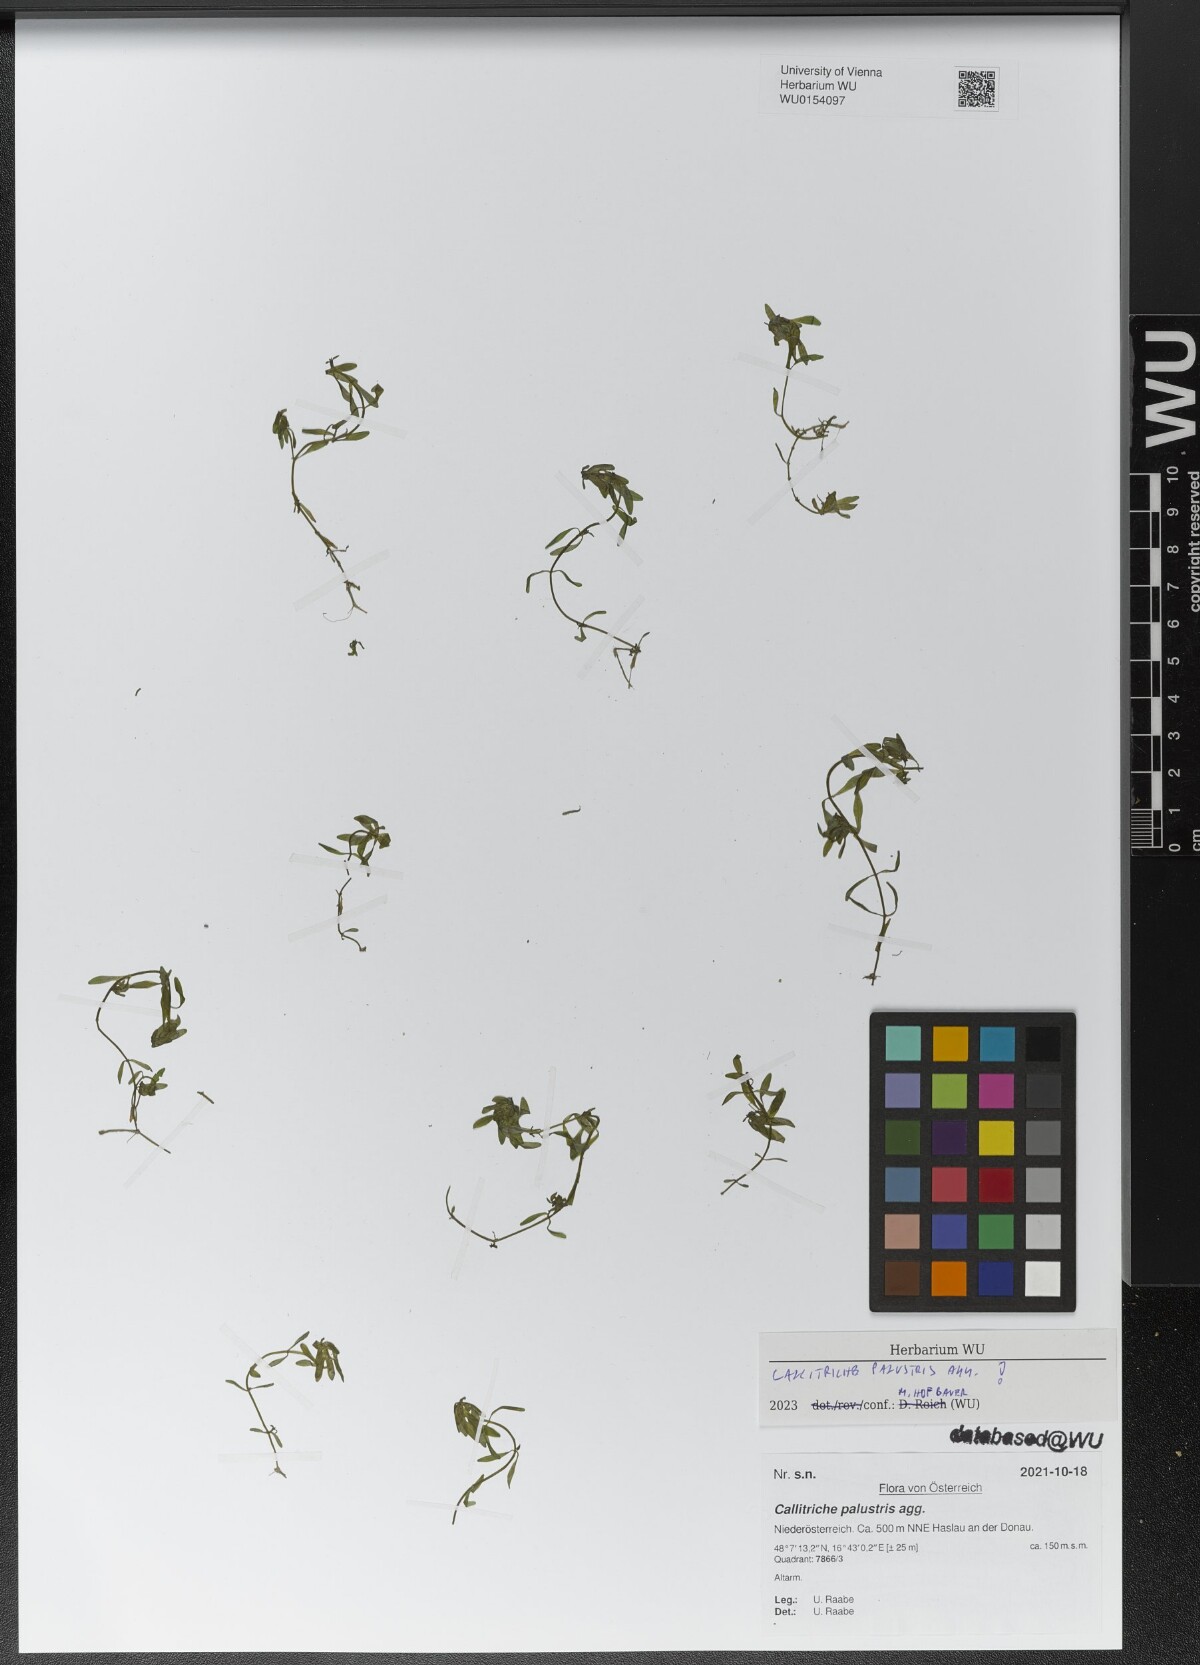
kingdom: Plantae
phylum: Tracheophyta
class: Magnoliopsida
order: Lamiales
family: Plantaginaceae
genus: Callitriche
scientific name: Callitriche palustris
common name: Spring water-starwort
